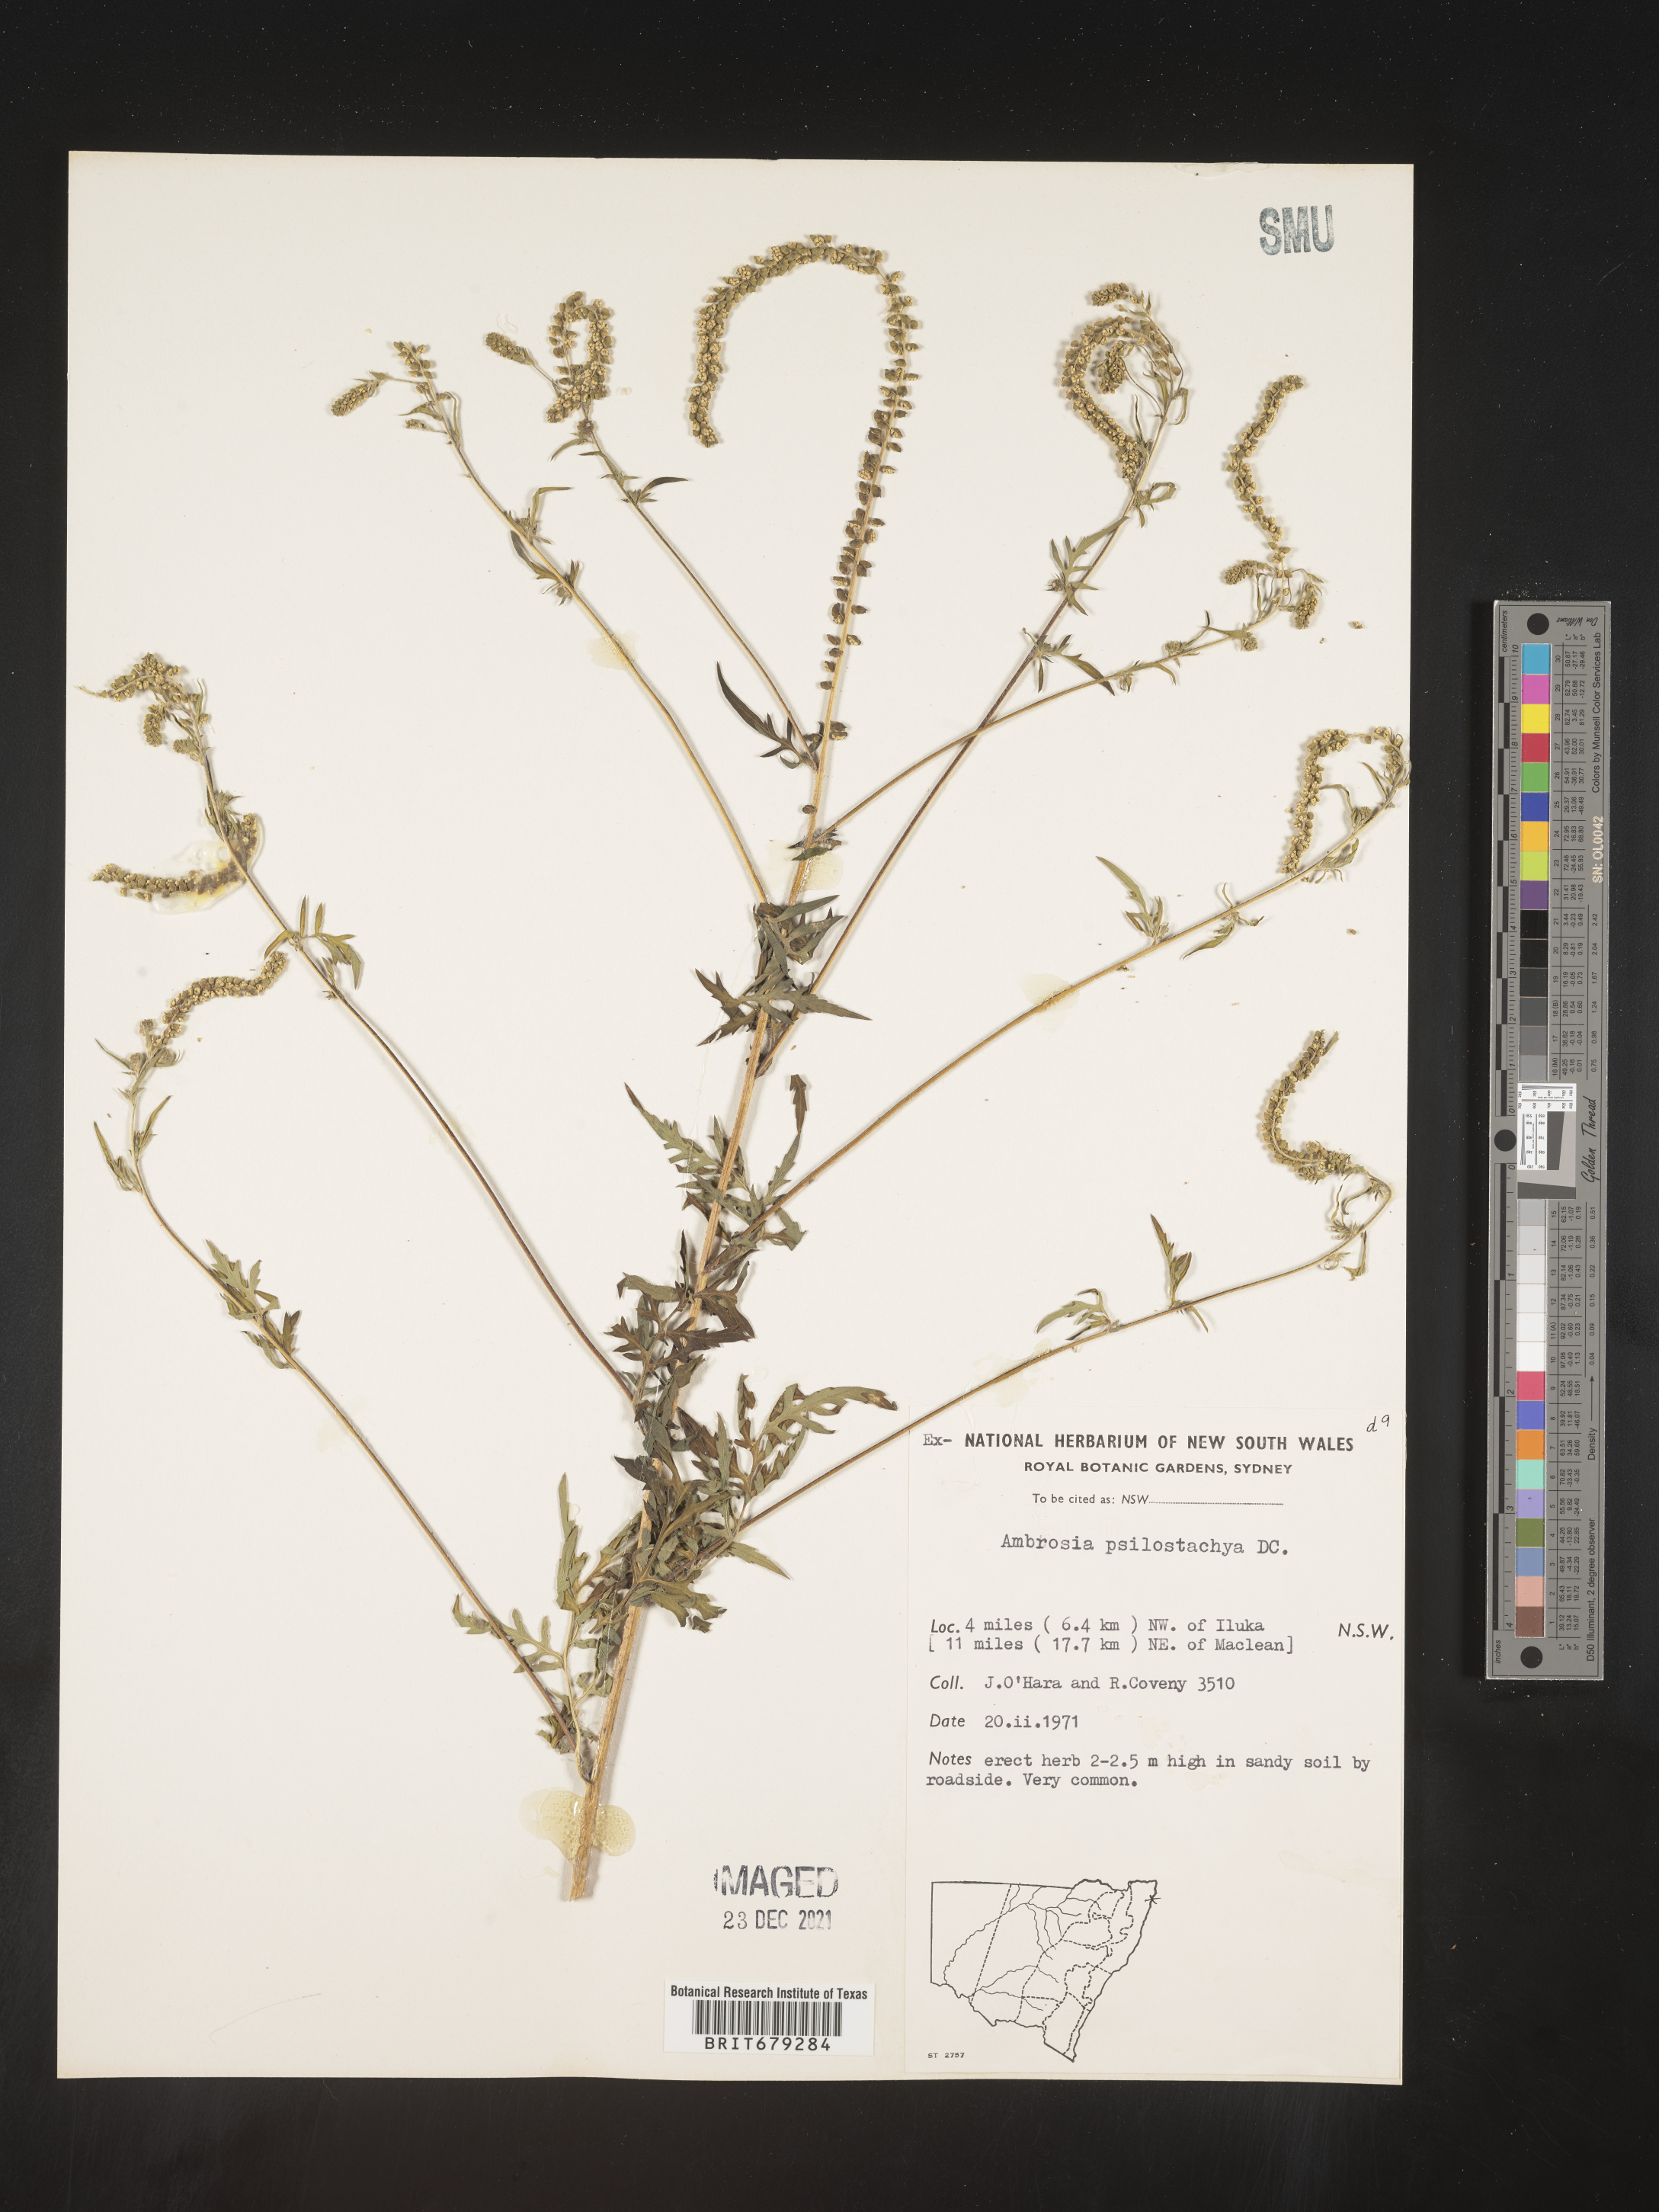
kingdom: Plantae
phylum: Tracheophyta
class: Magnoliopsida
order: Asterales
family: Asteraceae
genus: Ambrosia
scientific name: Ambrosia
